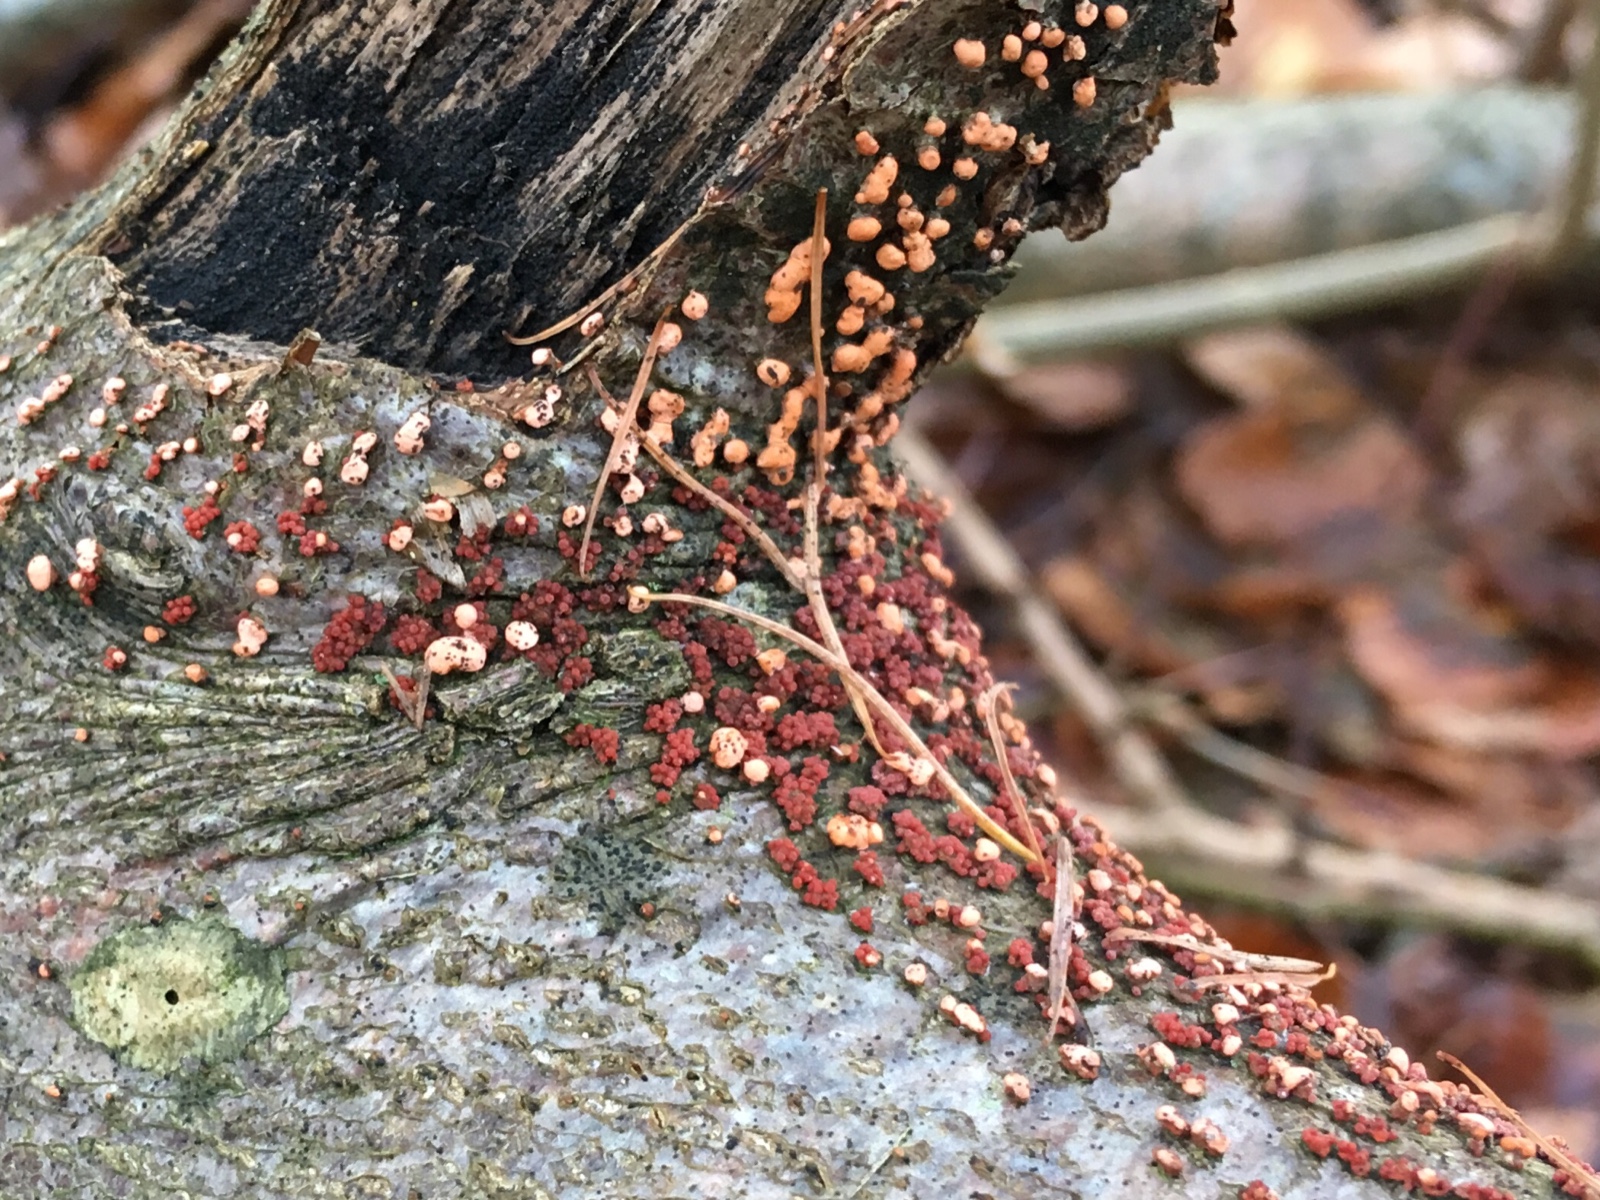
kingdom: Fungi
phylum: Ascomycota
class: Sordariomycetes
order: Hypocreales
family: Nectriaceae
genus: Nectria
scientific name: Nectria cinnabarina
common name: almindelig cinnobersvamp
